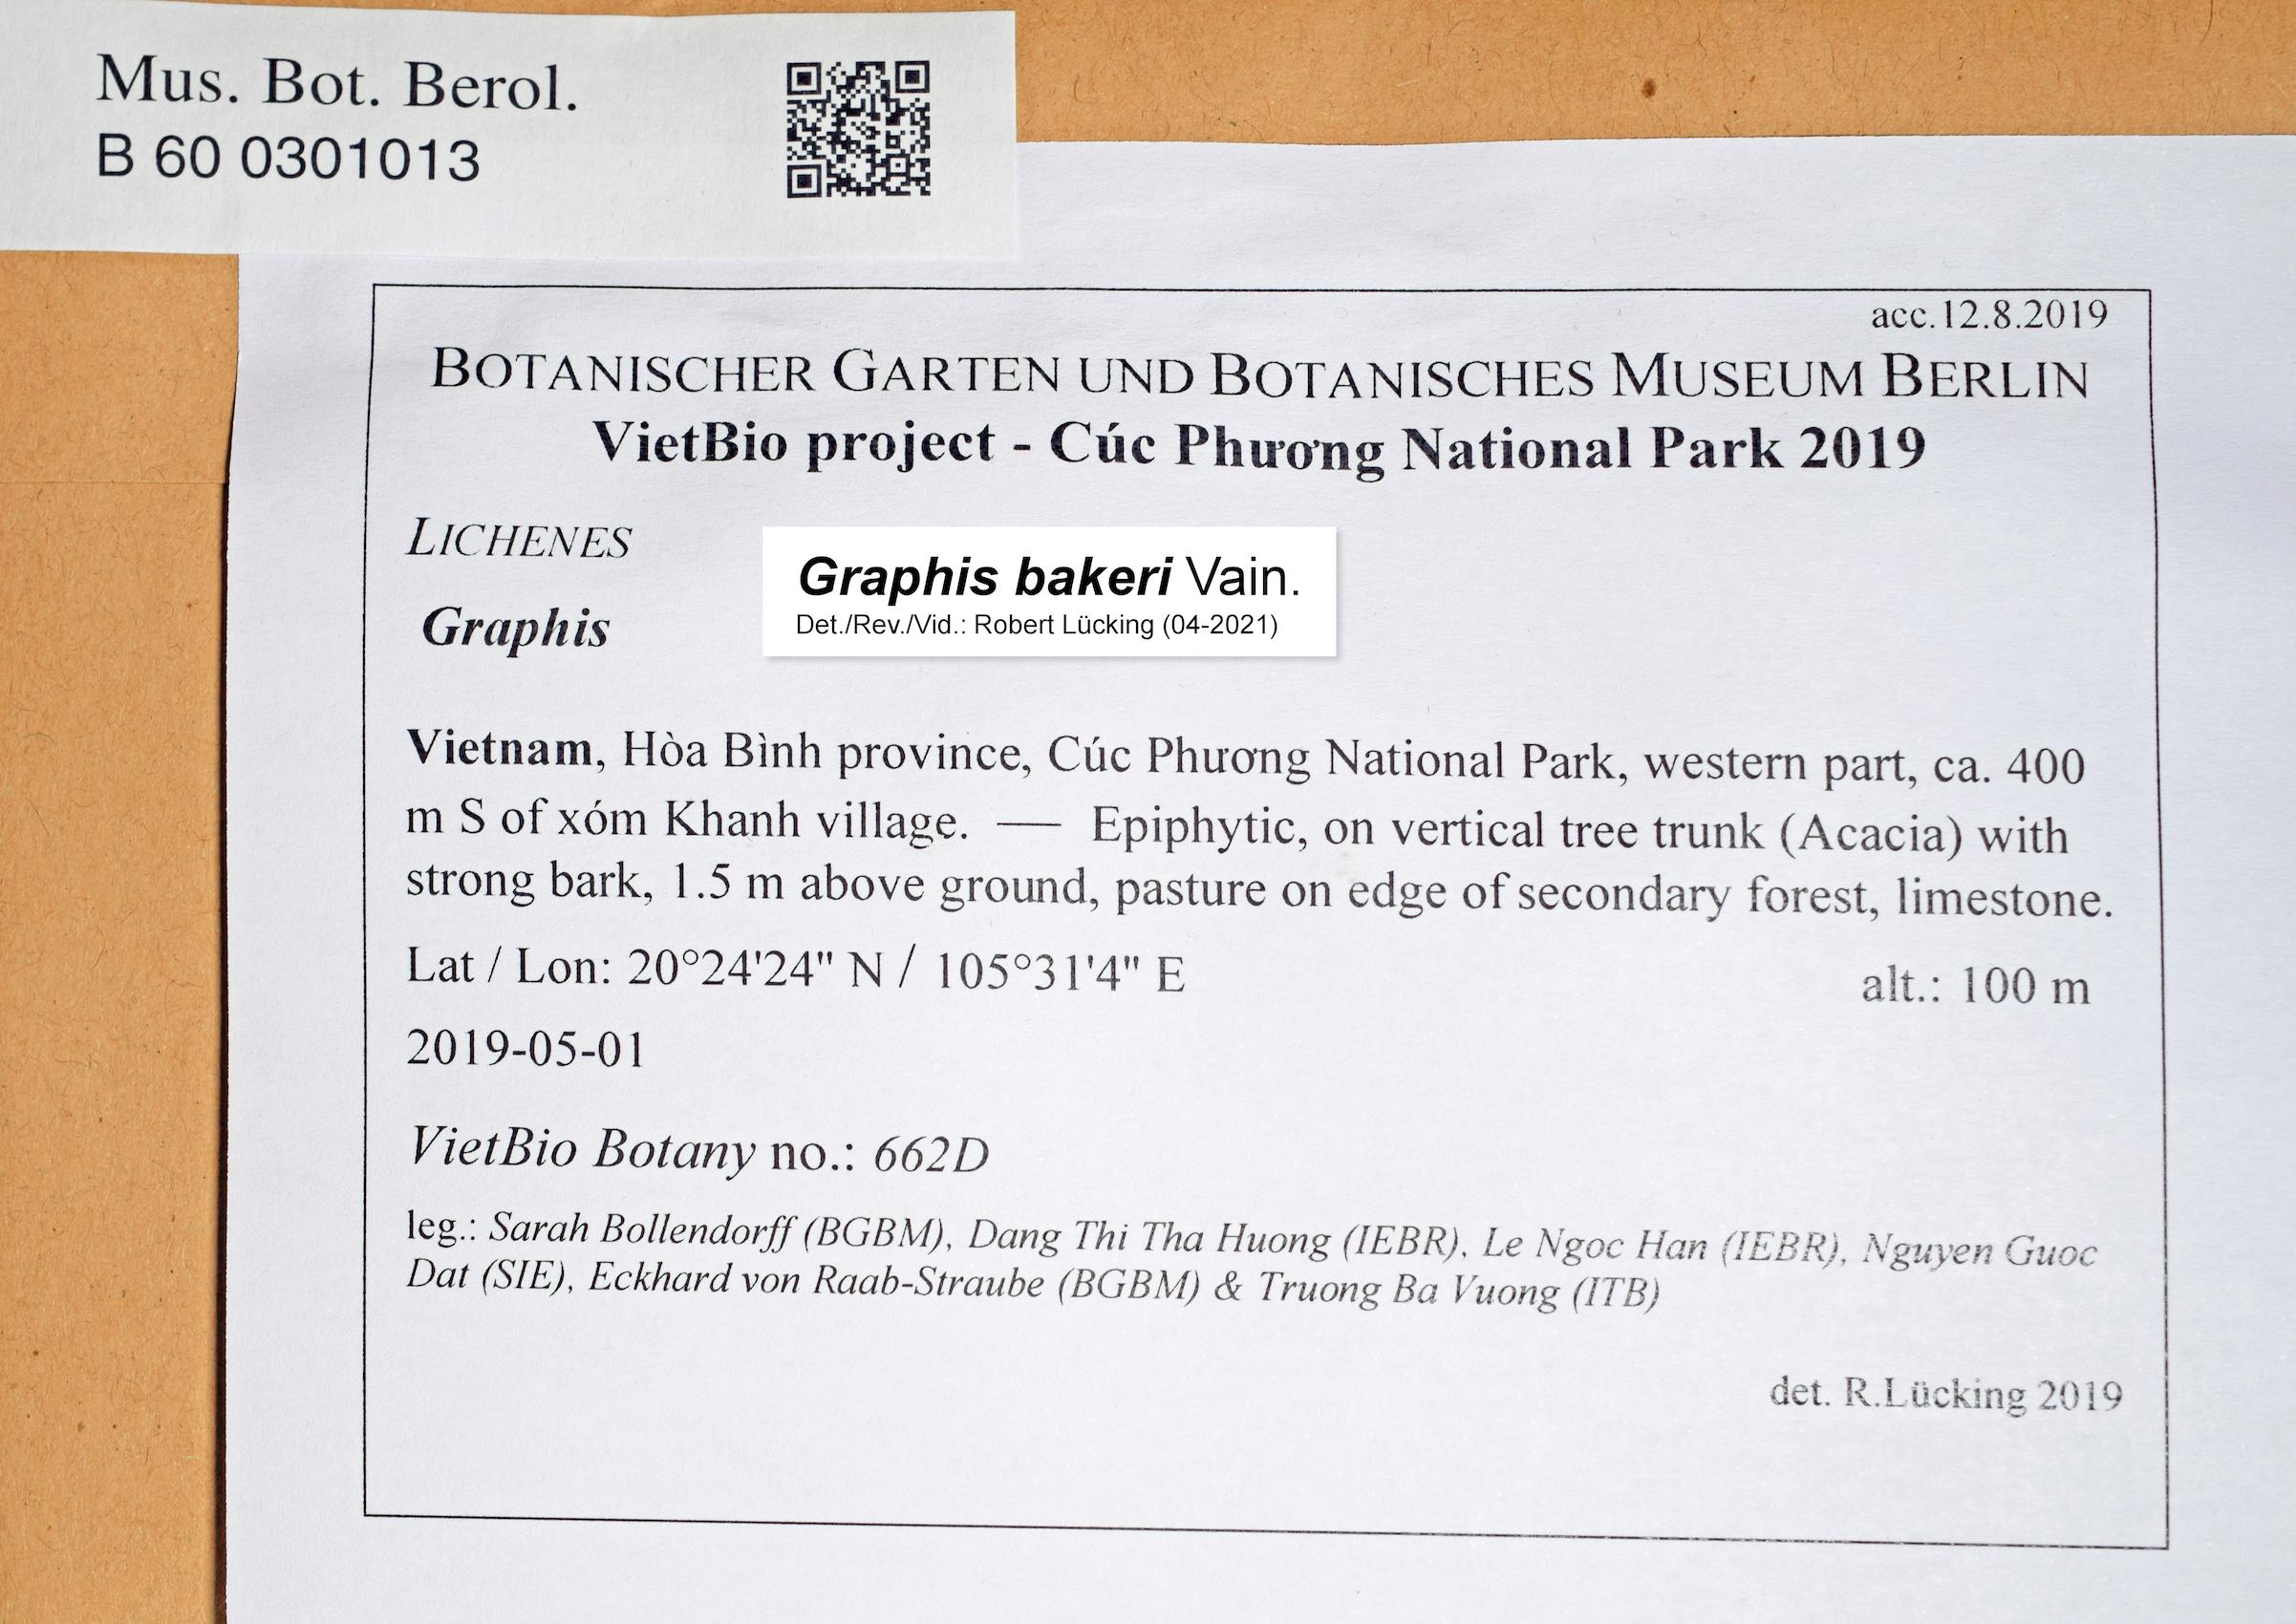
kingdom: Fungi
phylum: Ascomycota
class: Lecanoromycetes
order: Ostropales
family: Graphidaceae
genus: Graphis
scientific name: Graphis
